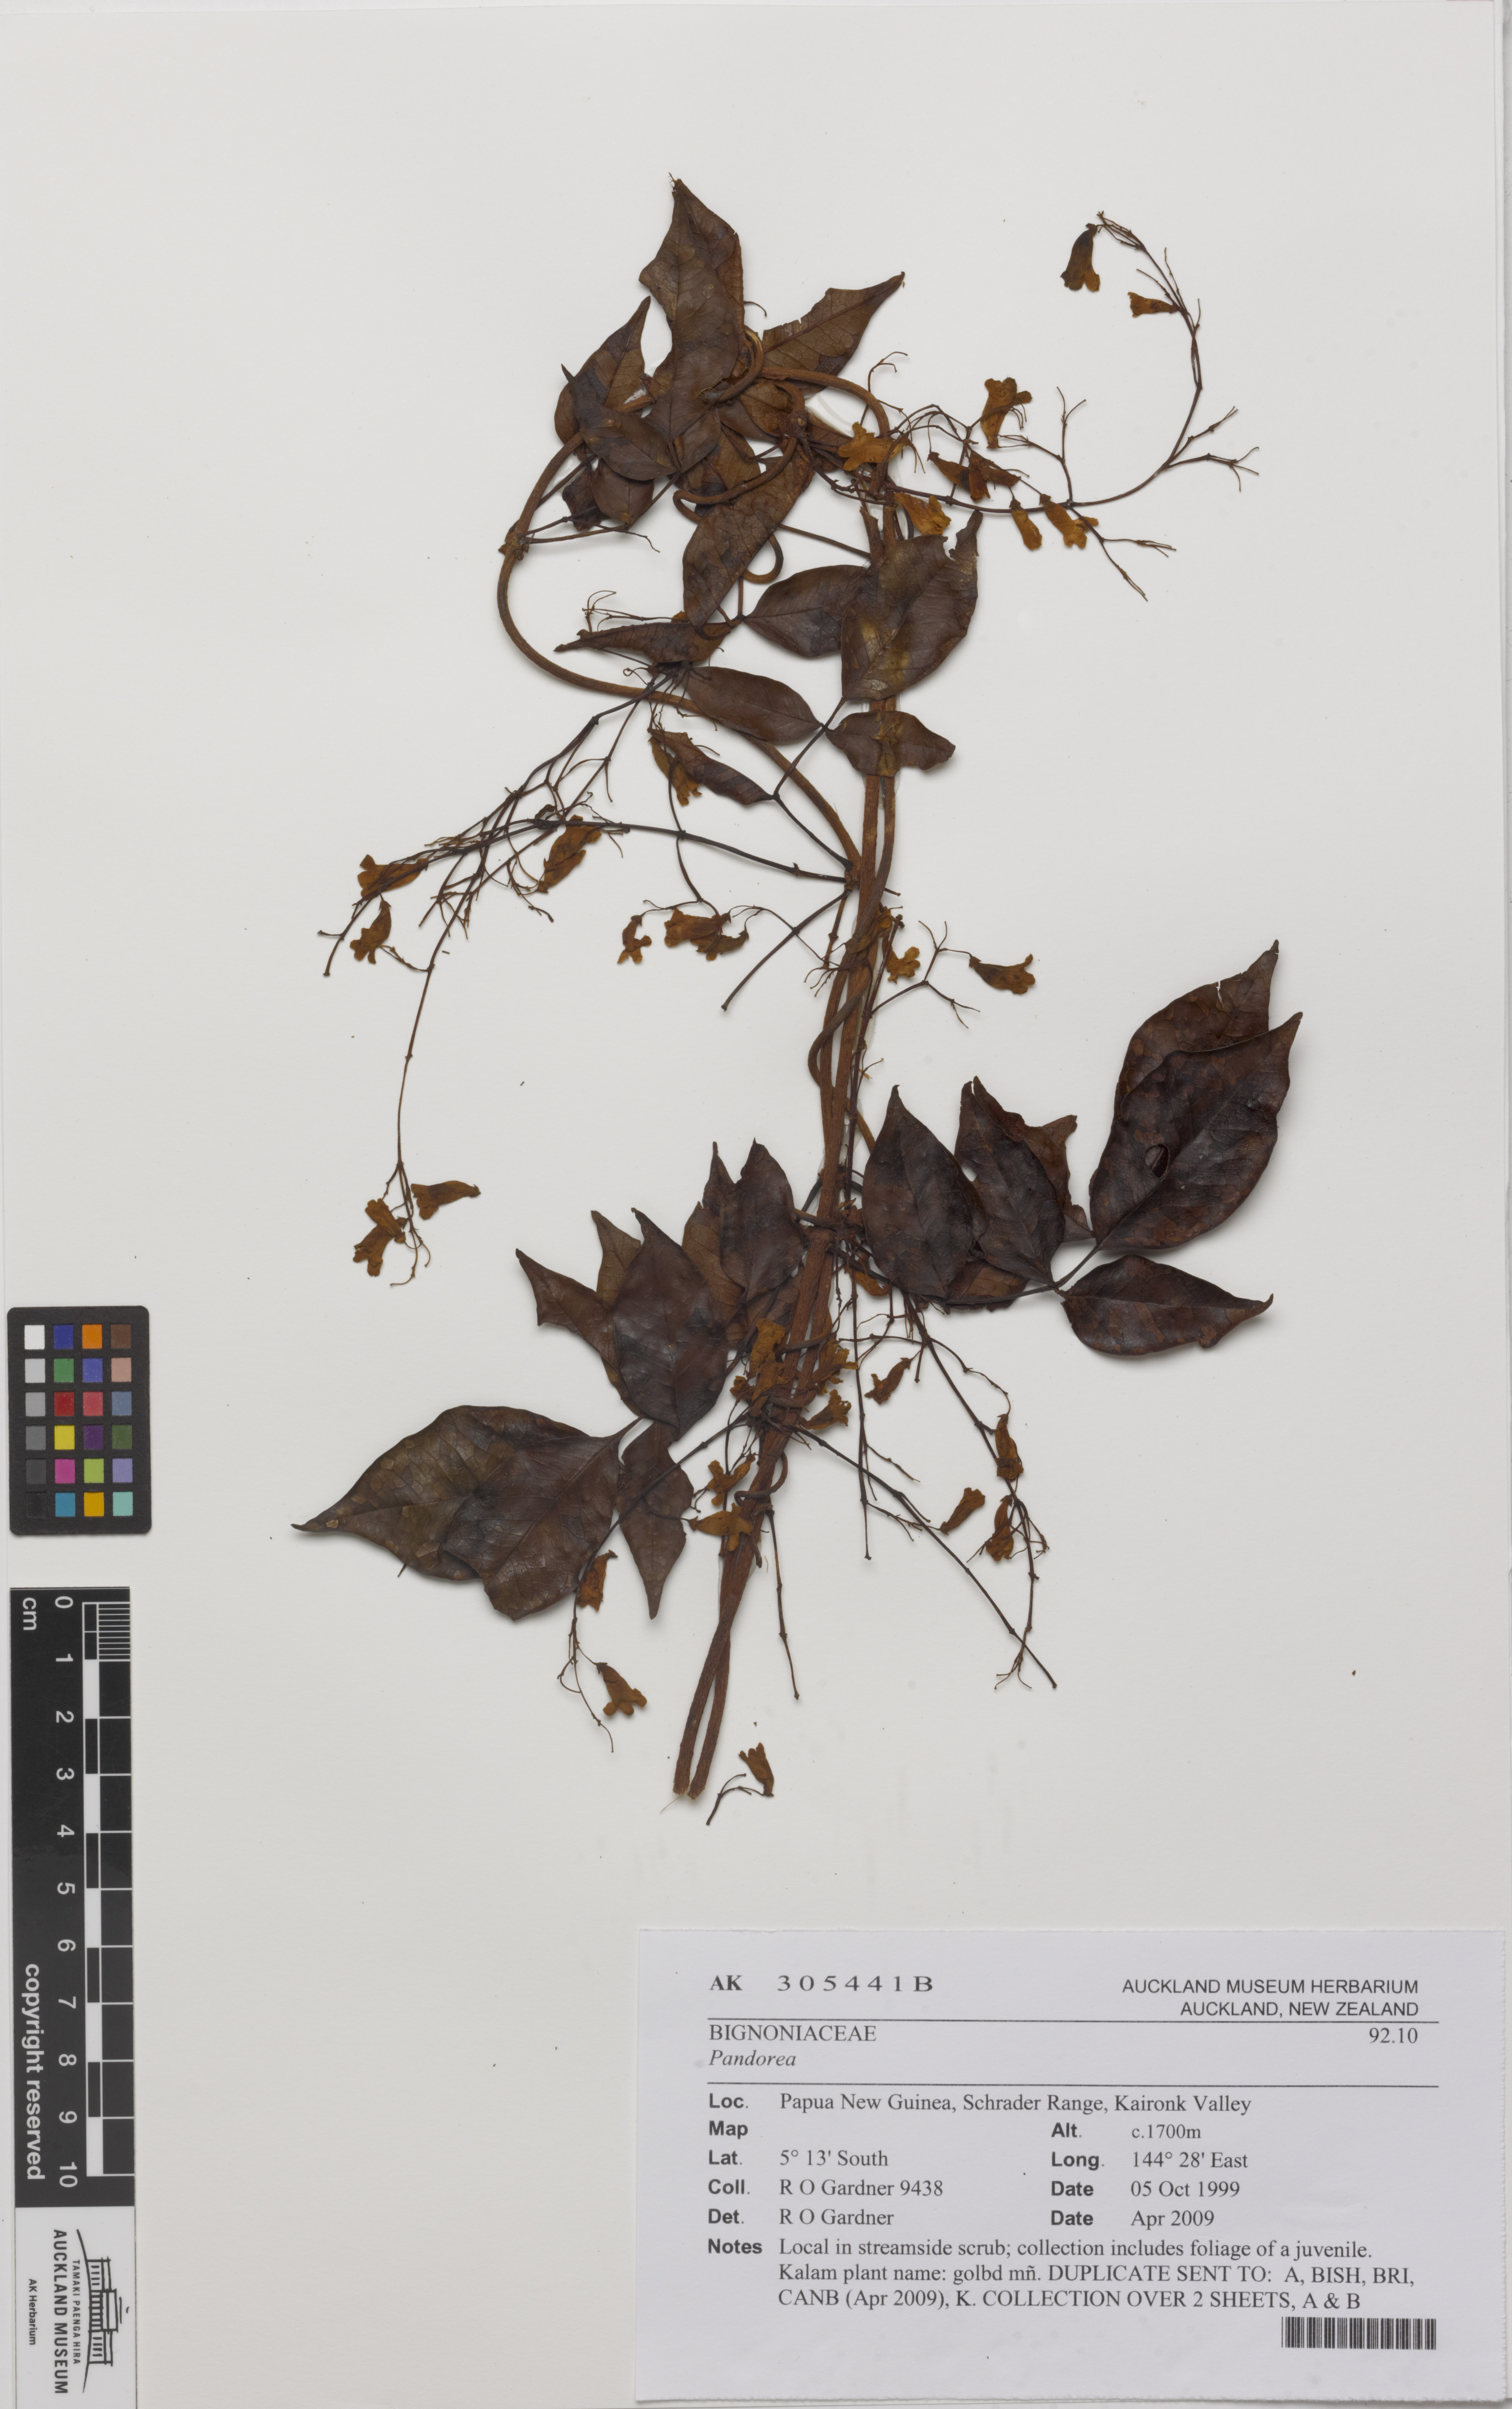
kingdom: Plantae
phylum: Tracheophyta
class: Magnoliopsida
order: Lamiales
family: Bignoniaceae
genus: Pandorea
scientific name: Pandorea
